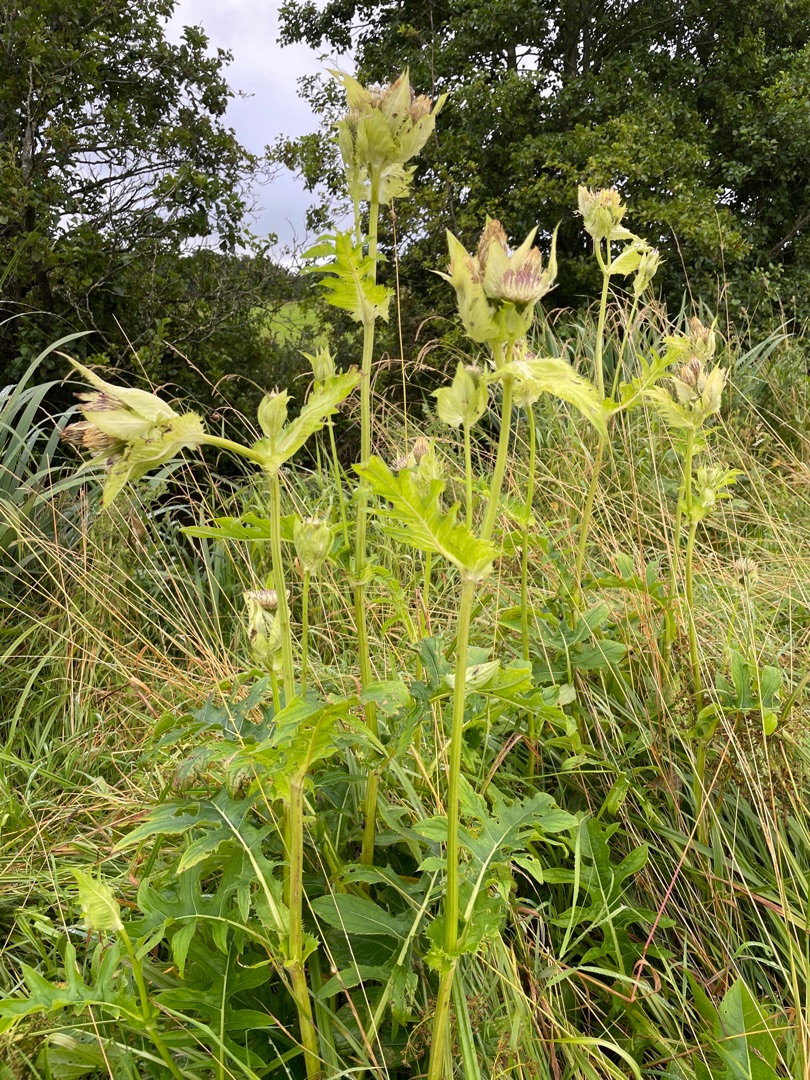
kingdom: Plantae
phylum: Tracheophyta
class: Magnoliopsida
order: Asterales
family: Asteraceae
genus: Cirsium
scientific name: Cirsium oleraceum
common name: Kål-tidsel
